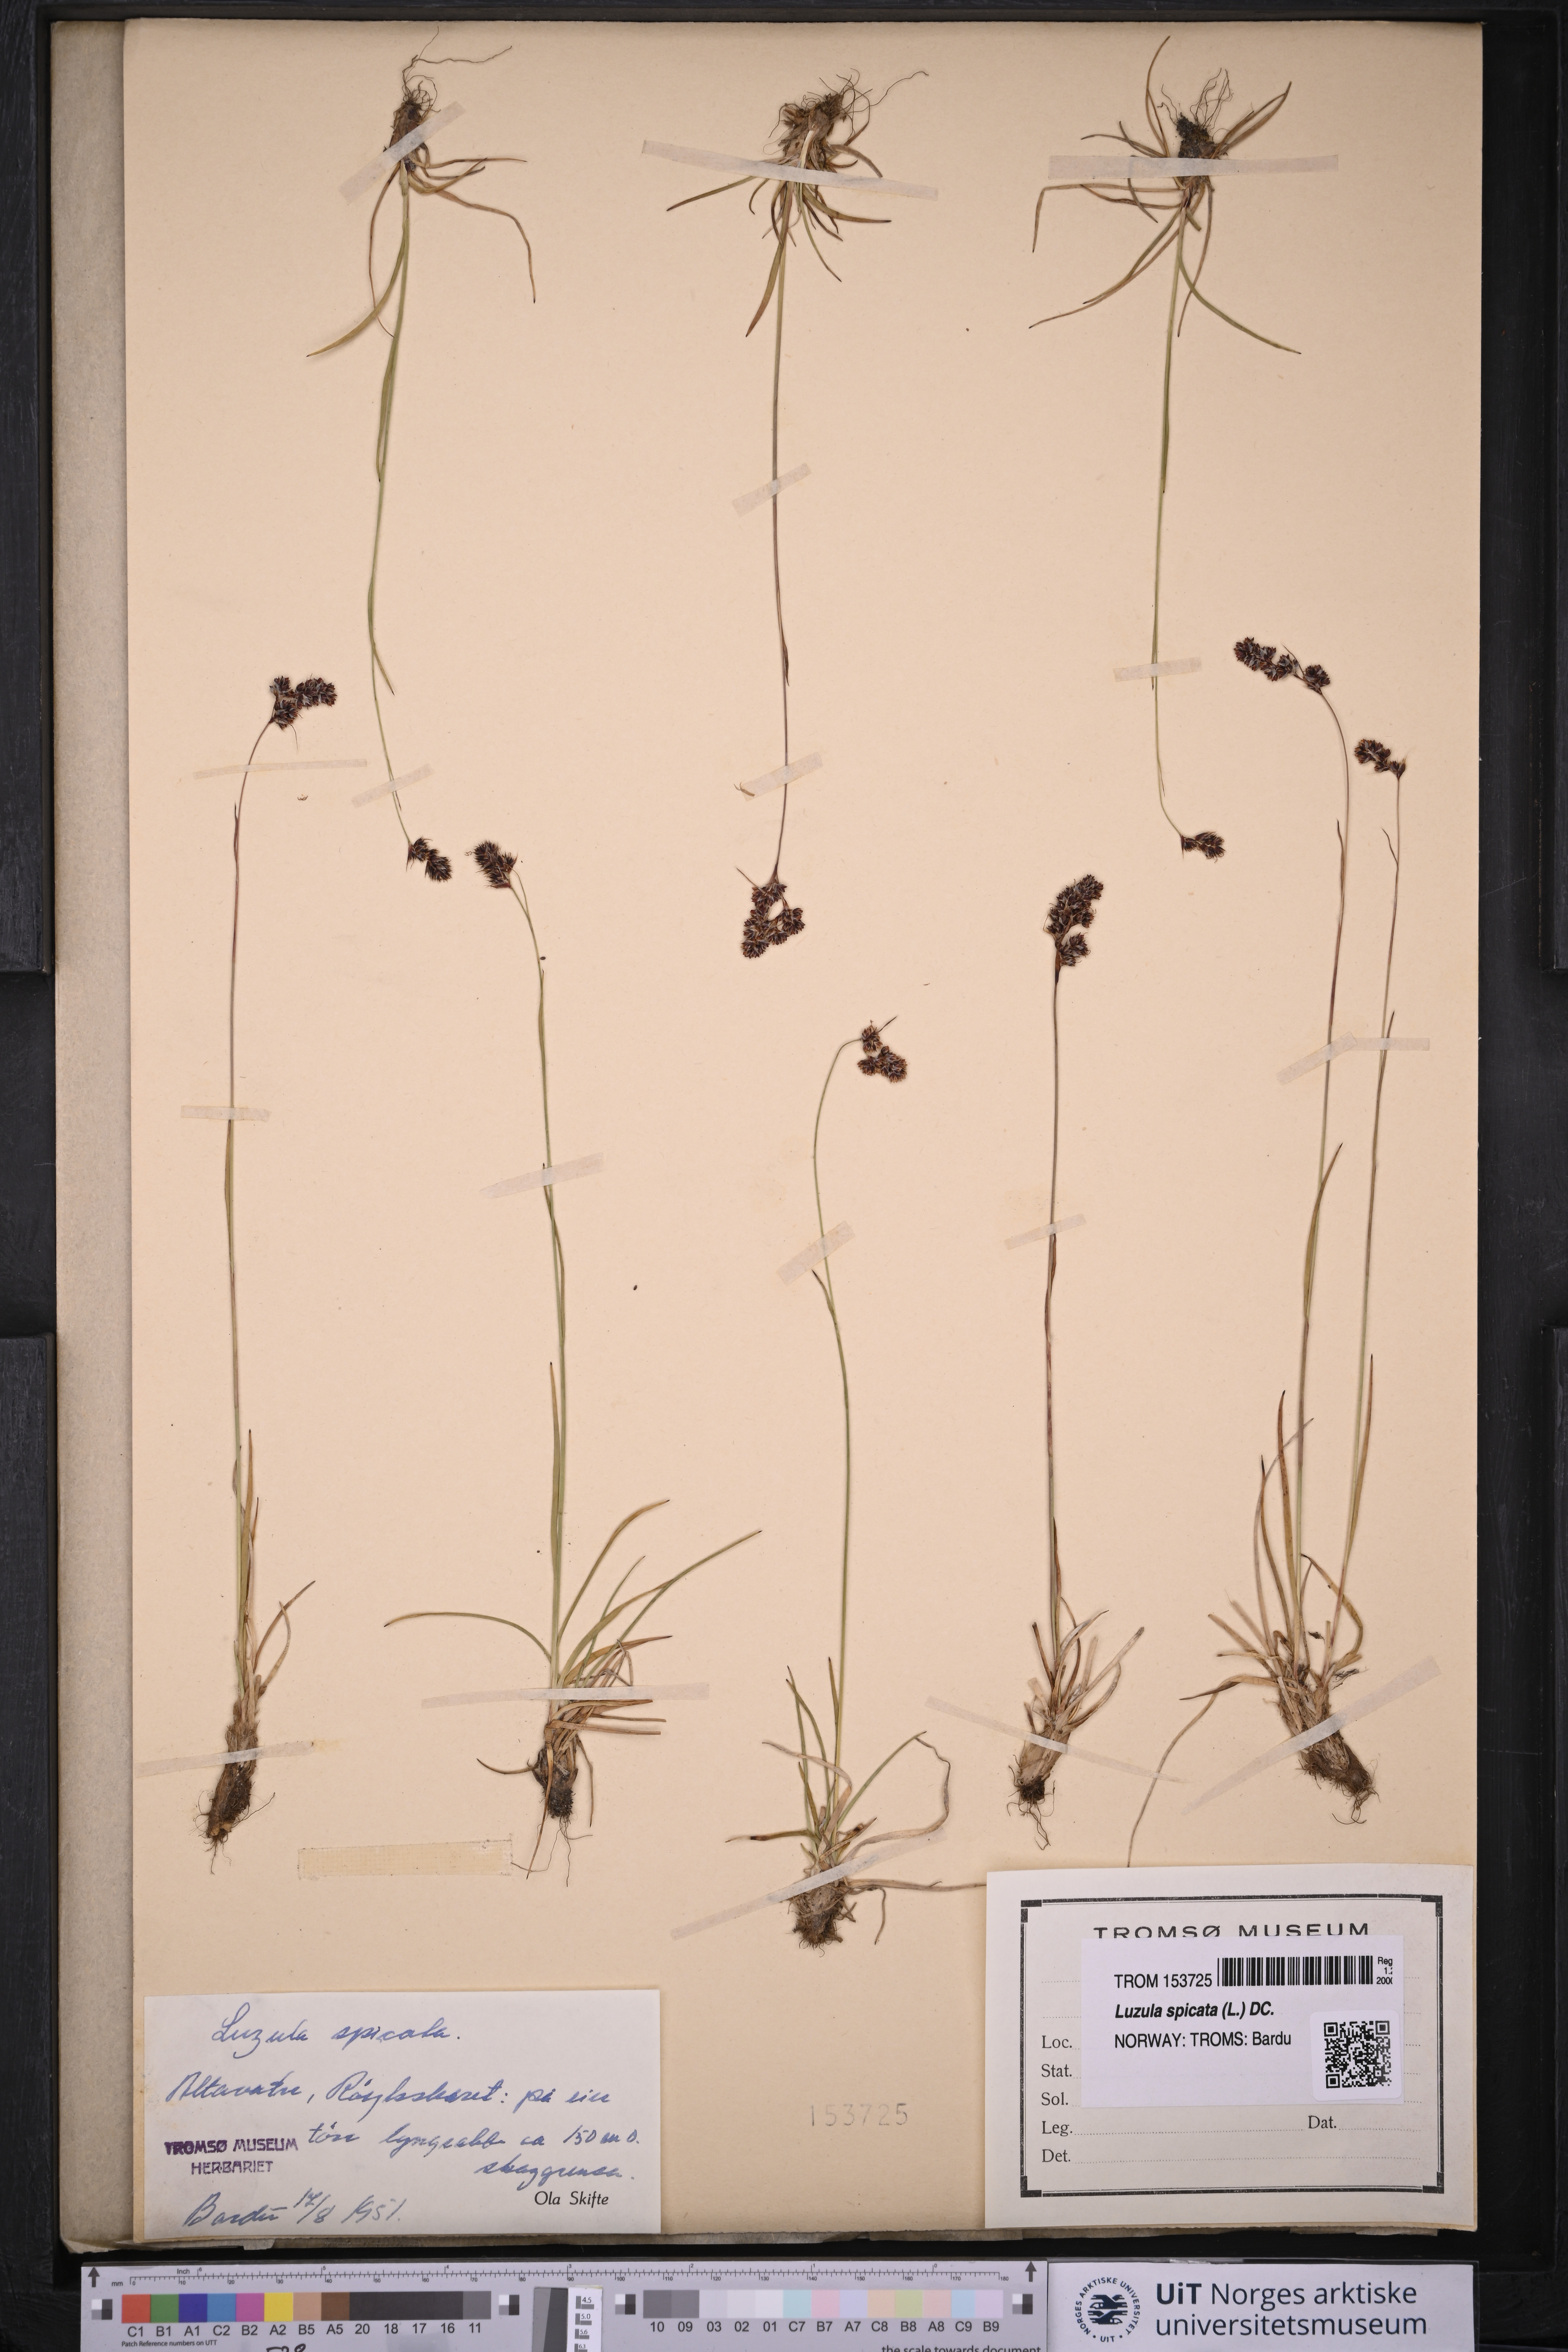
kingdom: Plantae
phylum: Tracheophyta
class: Liliopsida
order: Poales
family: Juncaceae
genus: Luzula
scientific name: Luzula spicata
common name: Spiked wood-rush
